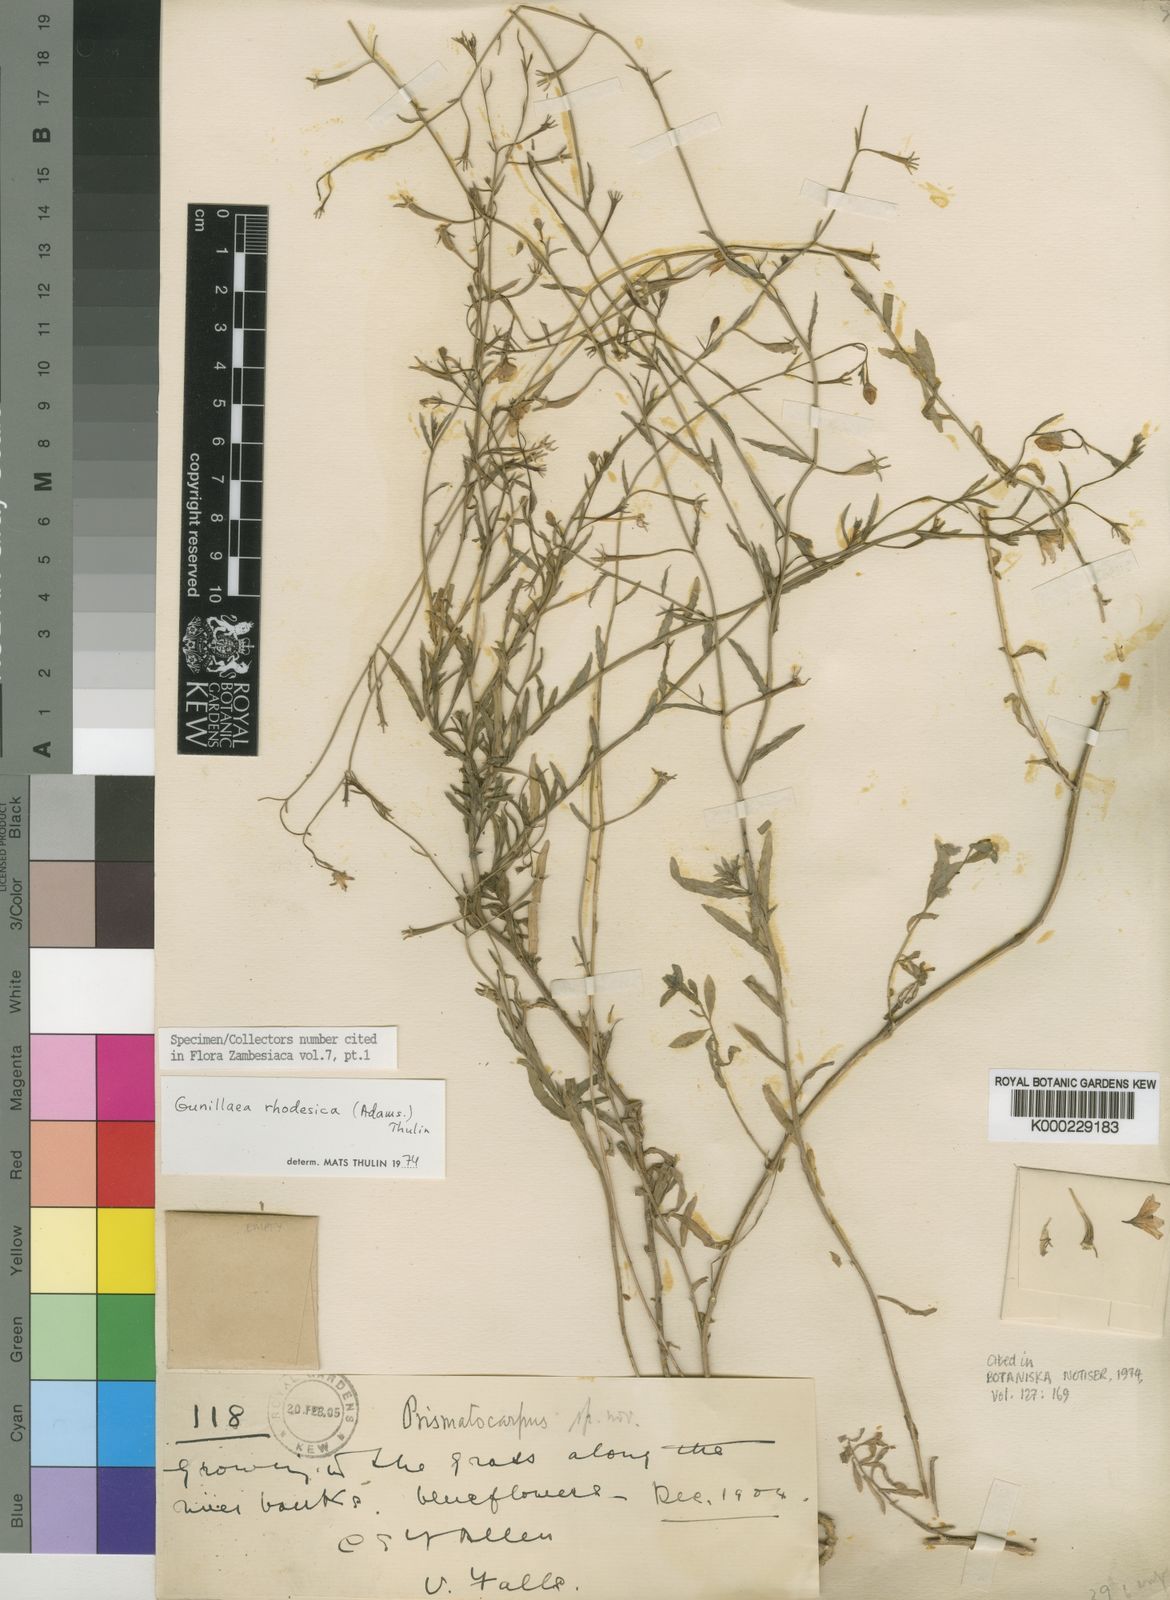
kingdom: Plantae
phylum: Tracheophyta
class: Magnoliopsida
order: Asterales
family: Campanulaceae
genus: Gunillaea
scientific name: Gunillaea rhodesica
